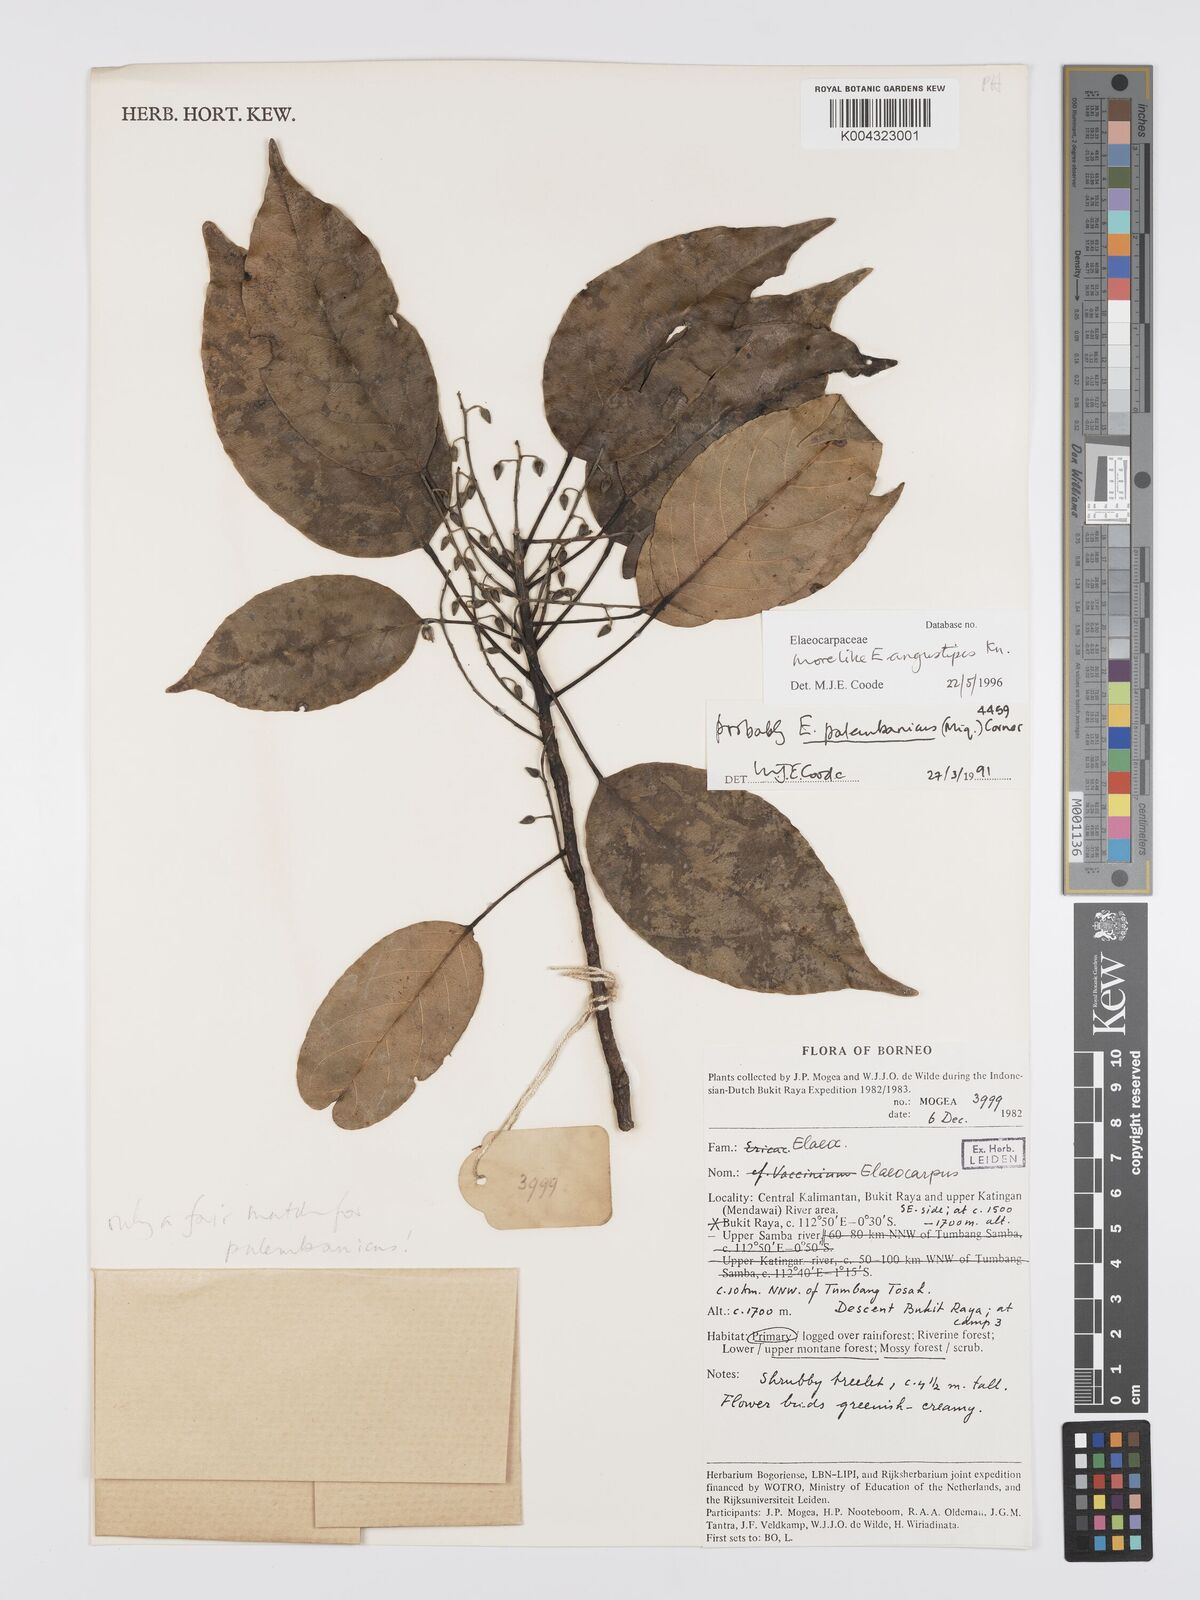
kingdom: Plantae
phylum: Tracheophyta
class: Magnoliopsida
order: Oxalidales
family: Elaeocarpaceae
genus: Elaeocarpus
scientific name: Elaeocarpus angustipes
